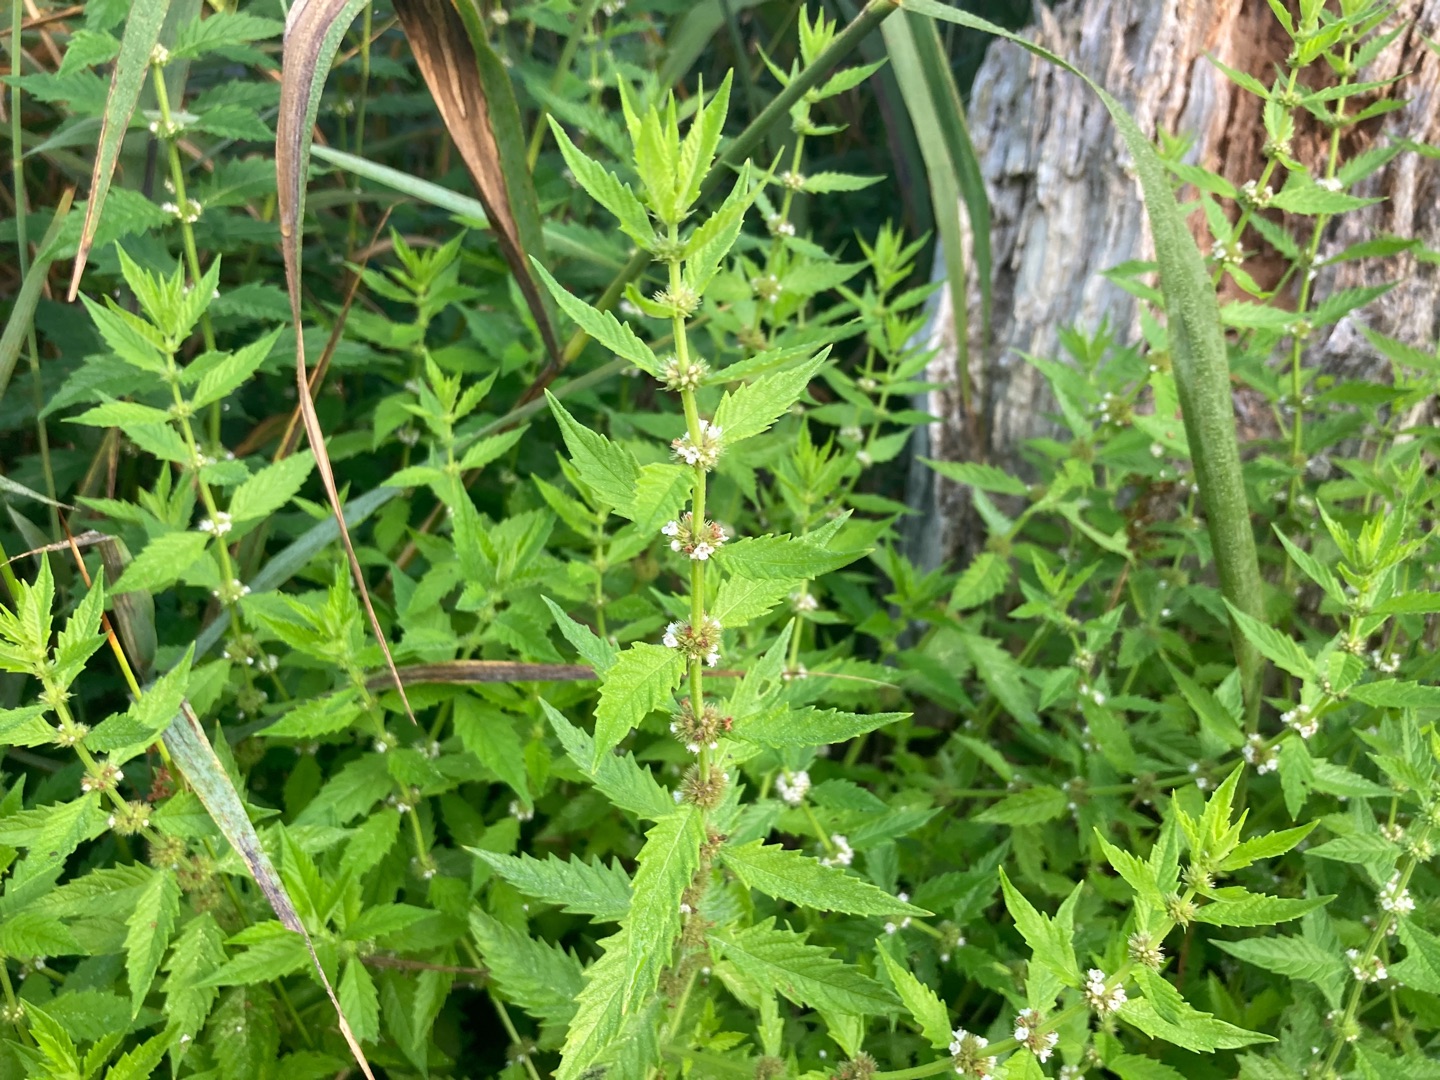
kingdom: Plantae
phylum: Tracheophyta
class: Magnoliopsida
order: Lamiales
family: Lamiaceae
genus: Lycopus
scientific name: Lycopus europaeus
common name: Sværtevæld
